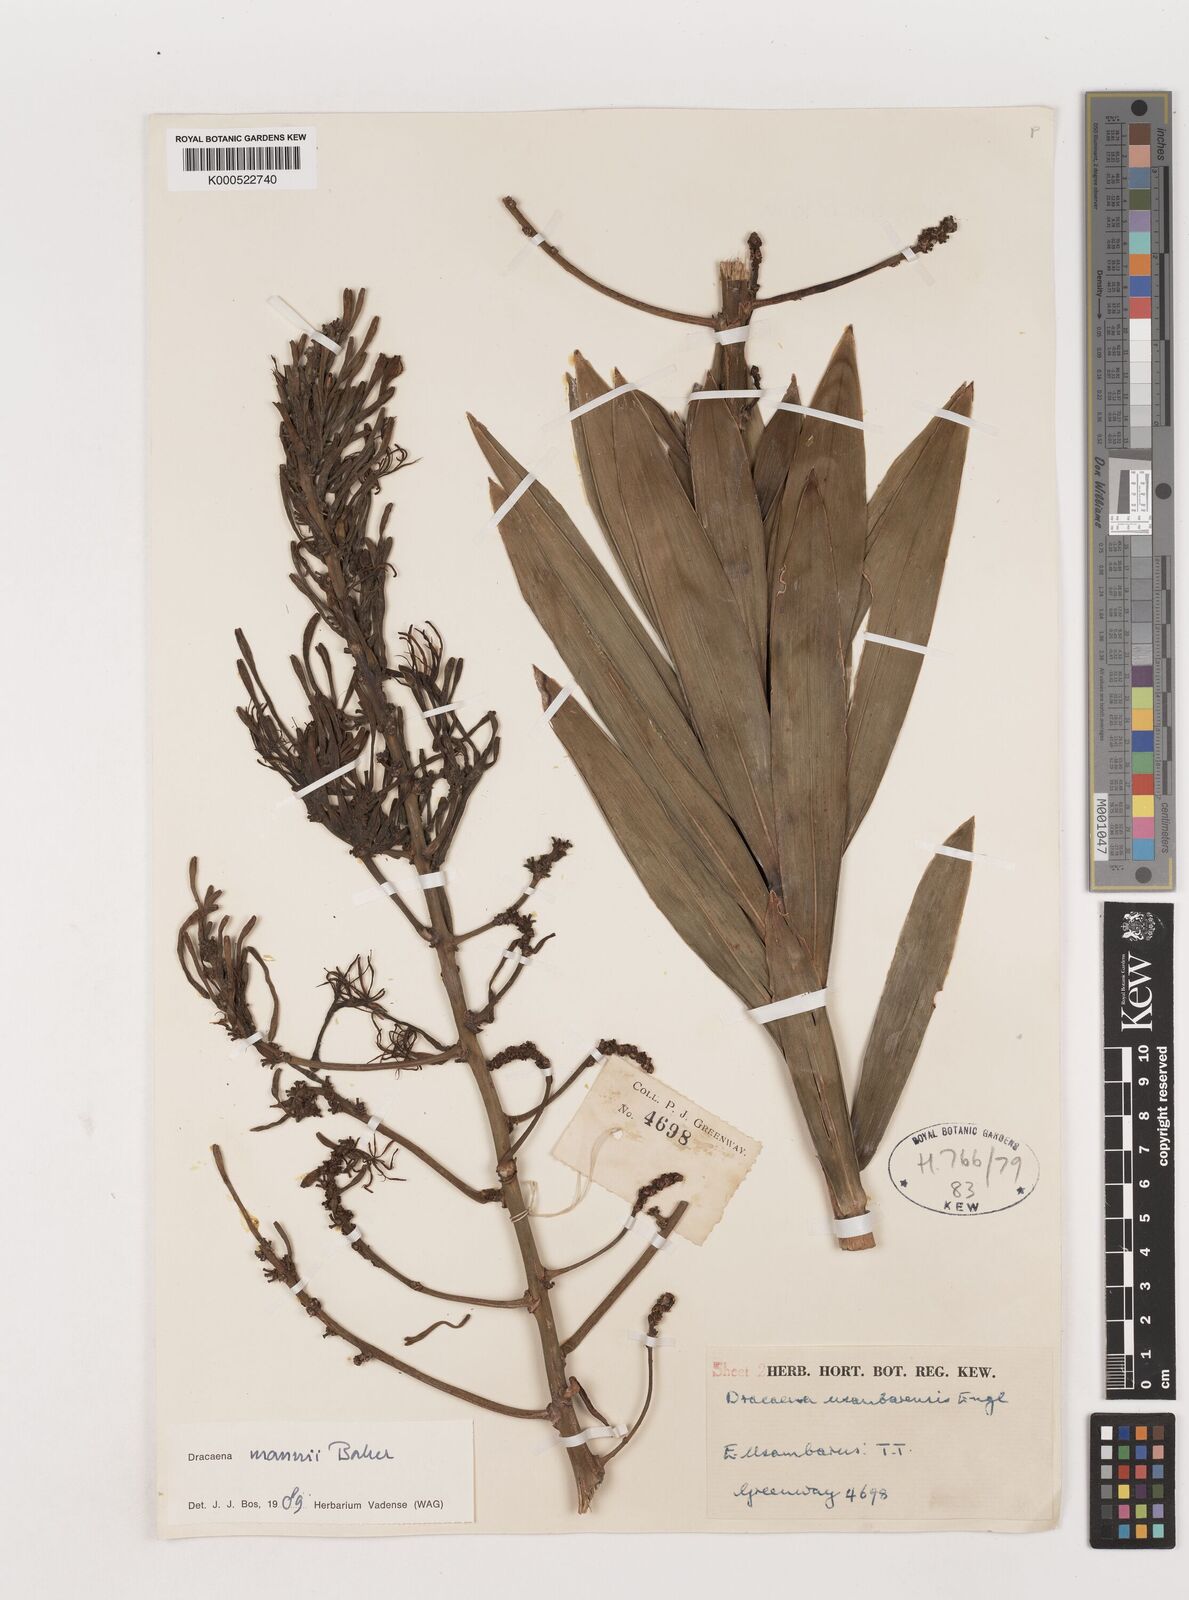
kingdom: Plantae
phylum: Tracheophyta
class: Liliopsida
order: Asparagales
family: Asparagaceae
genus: Dracaena
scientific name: Dracaena mannii
